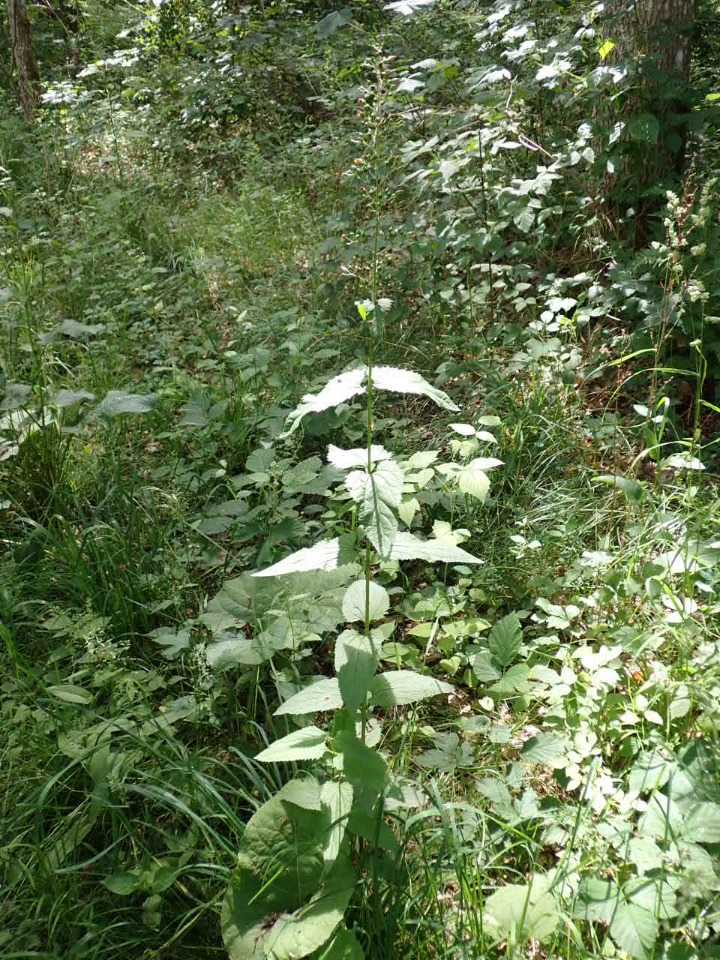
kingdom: Plantae
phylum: Tracheophyta
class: Magnoliopsida
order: Lamiales
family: Scrophulariaceae
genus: Scrophularia
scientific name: Scrophularia nodosa
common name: Knoldet brunrod
